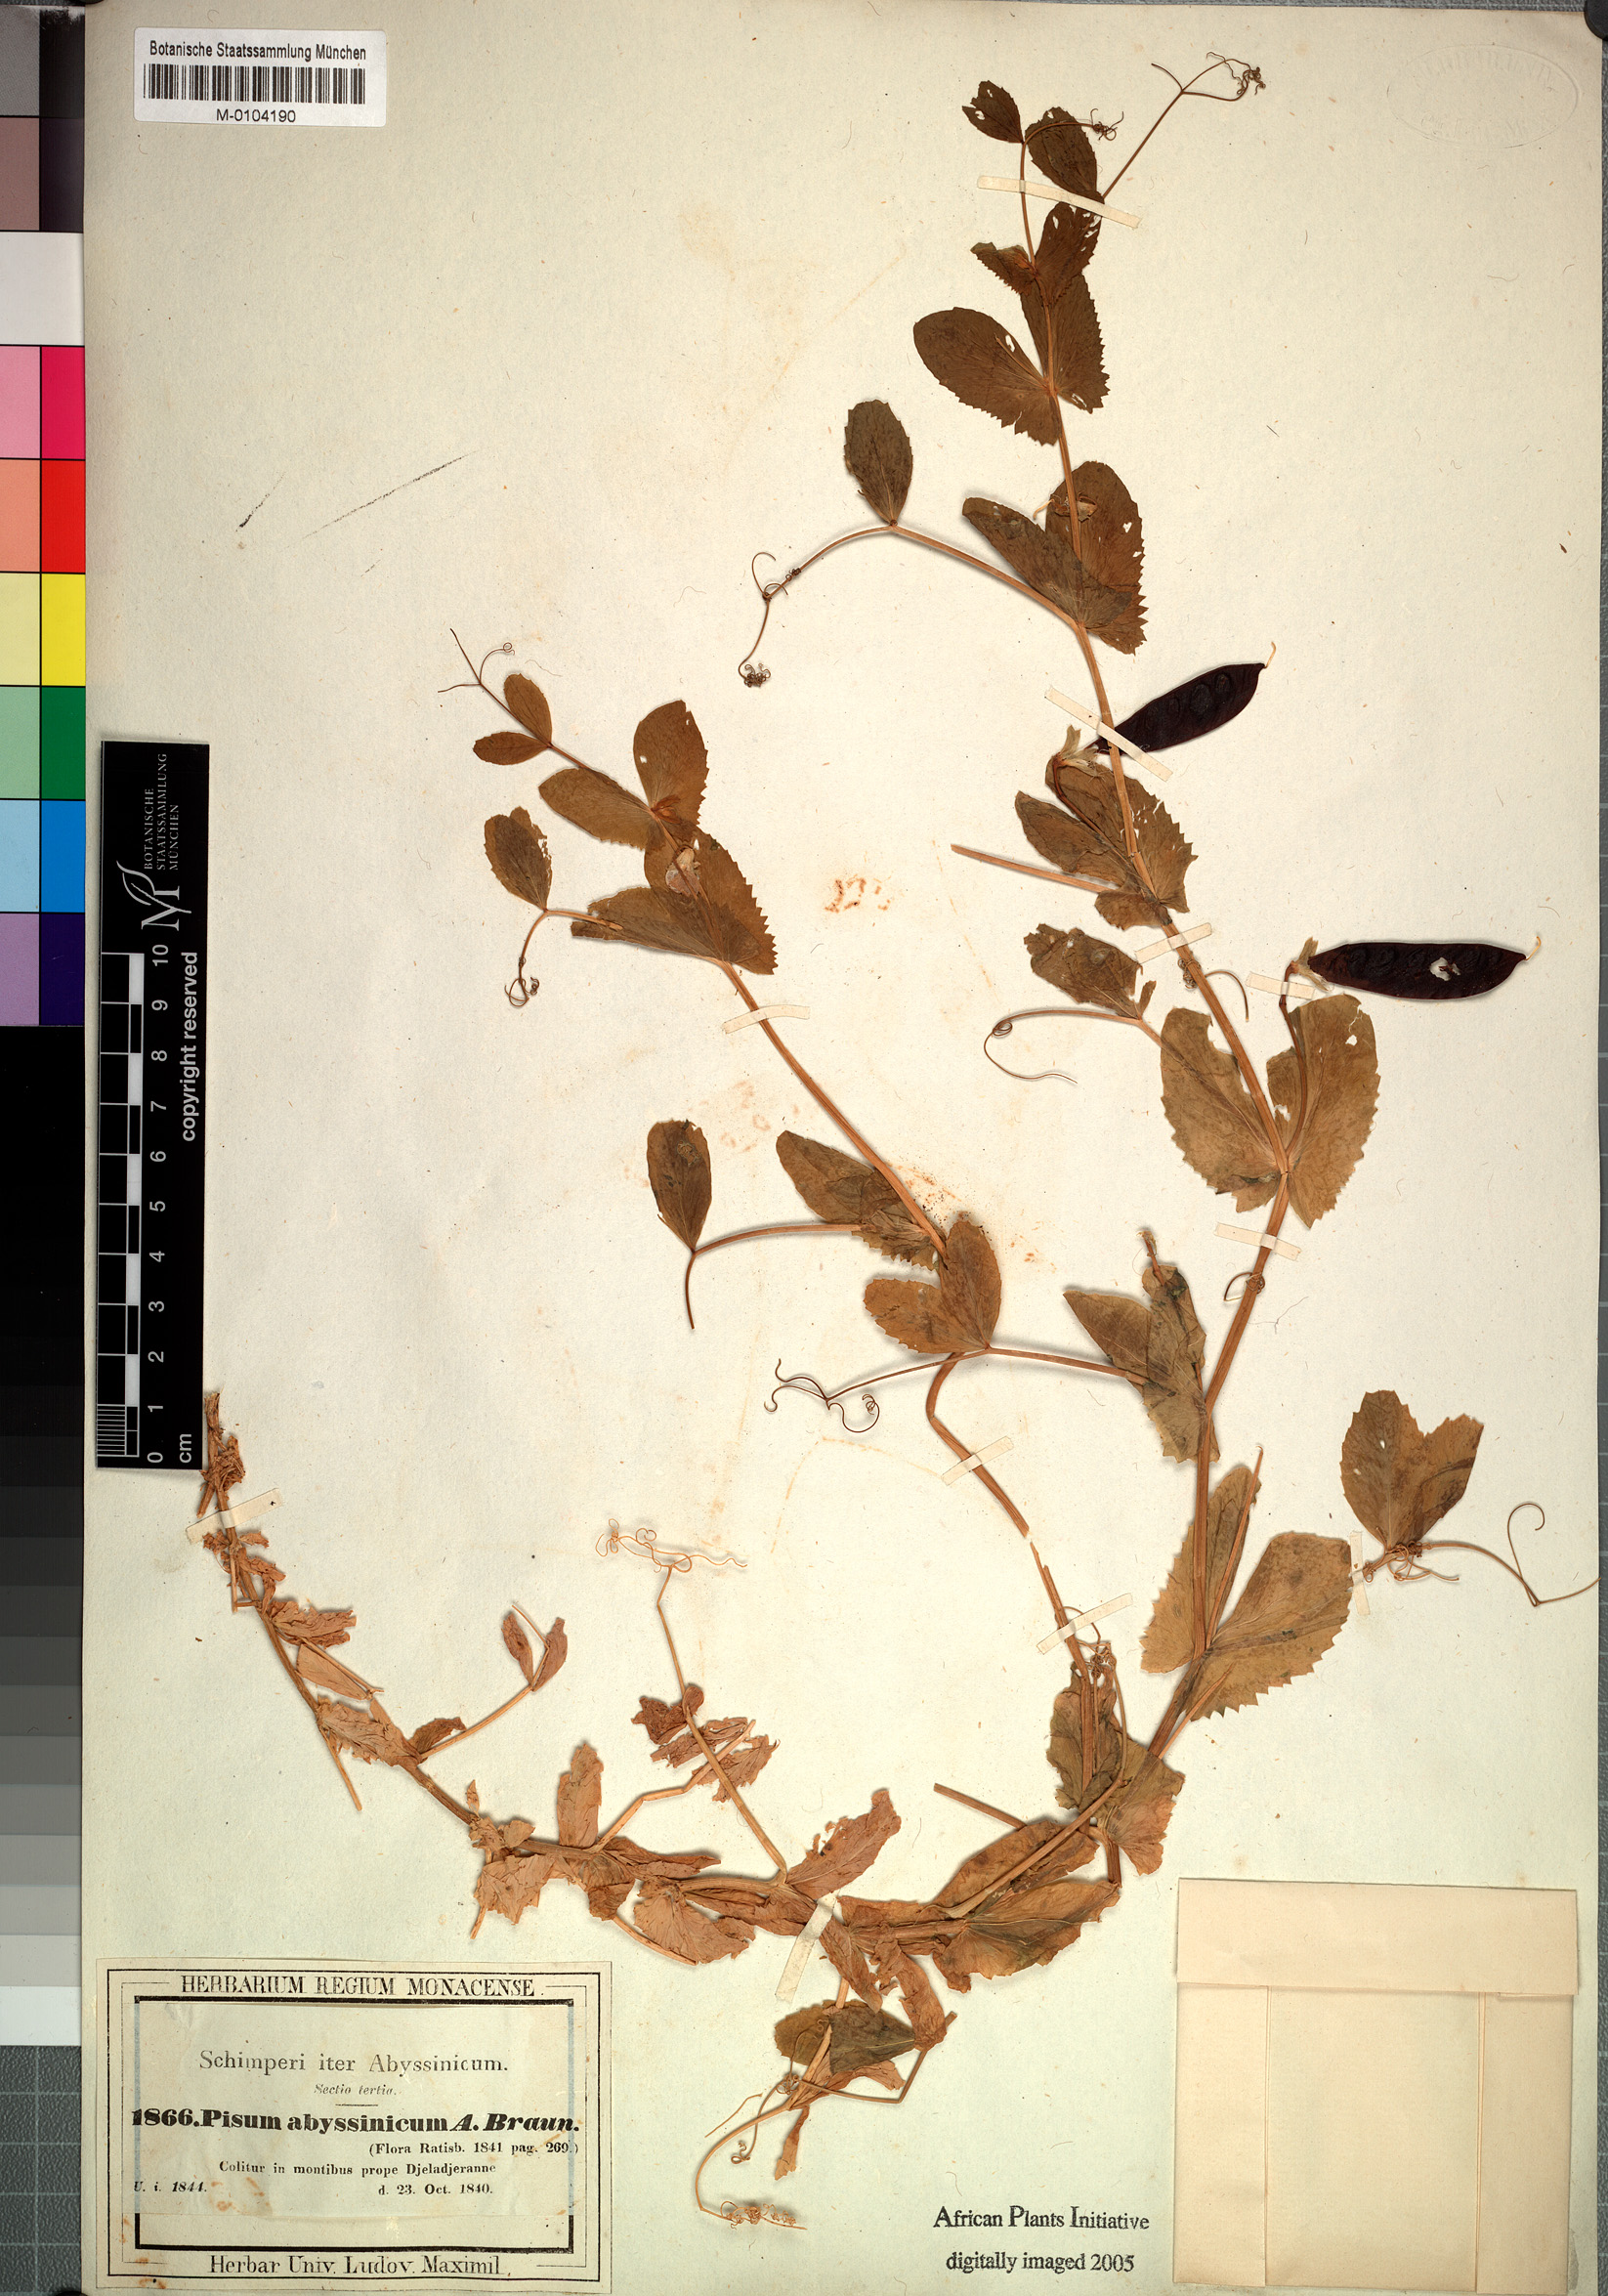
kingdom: Plantae
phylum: Tracheophyta
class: Magnoliopsida
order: Fabales
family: Fabaceae
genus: Lathyrus
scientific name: Lathyrus oleraceus
